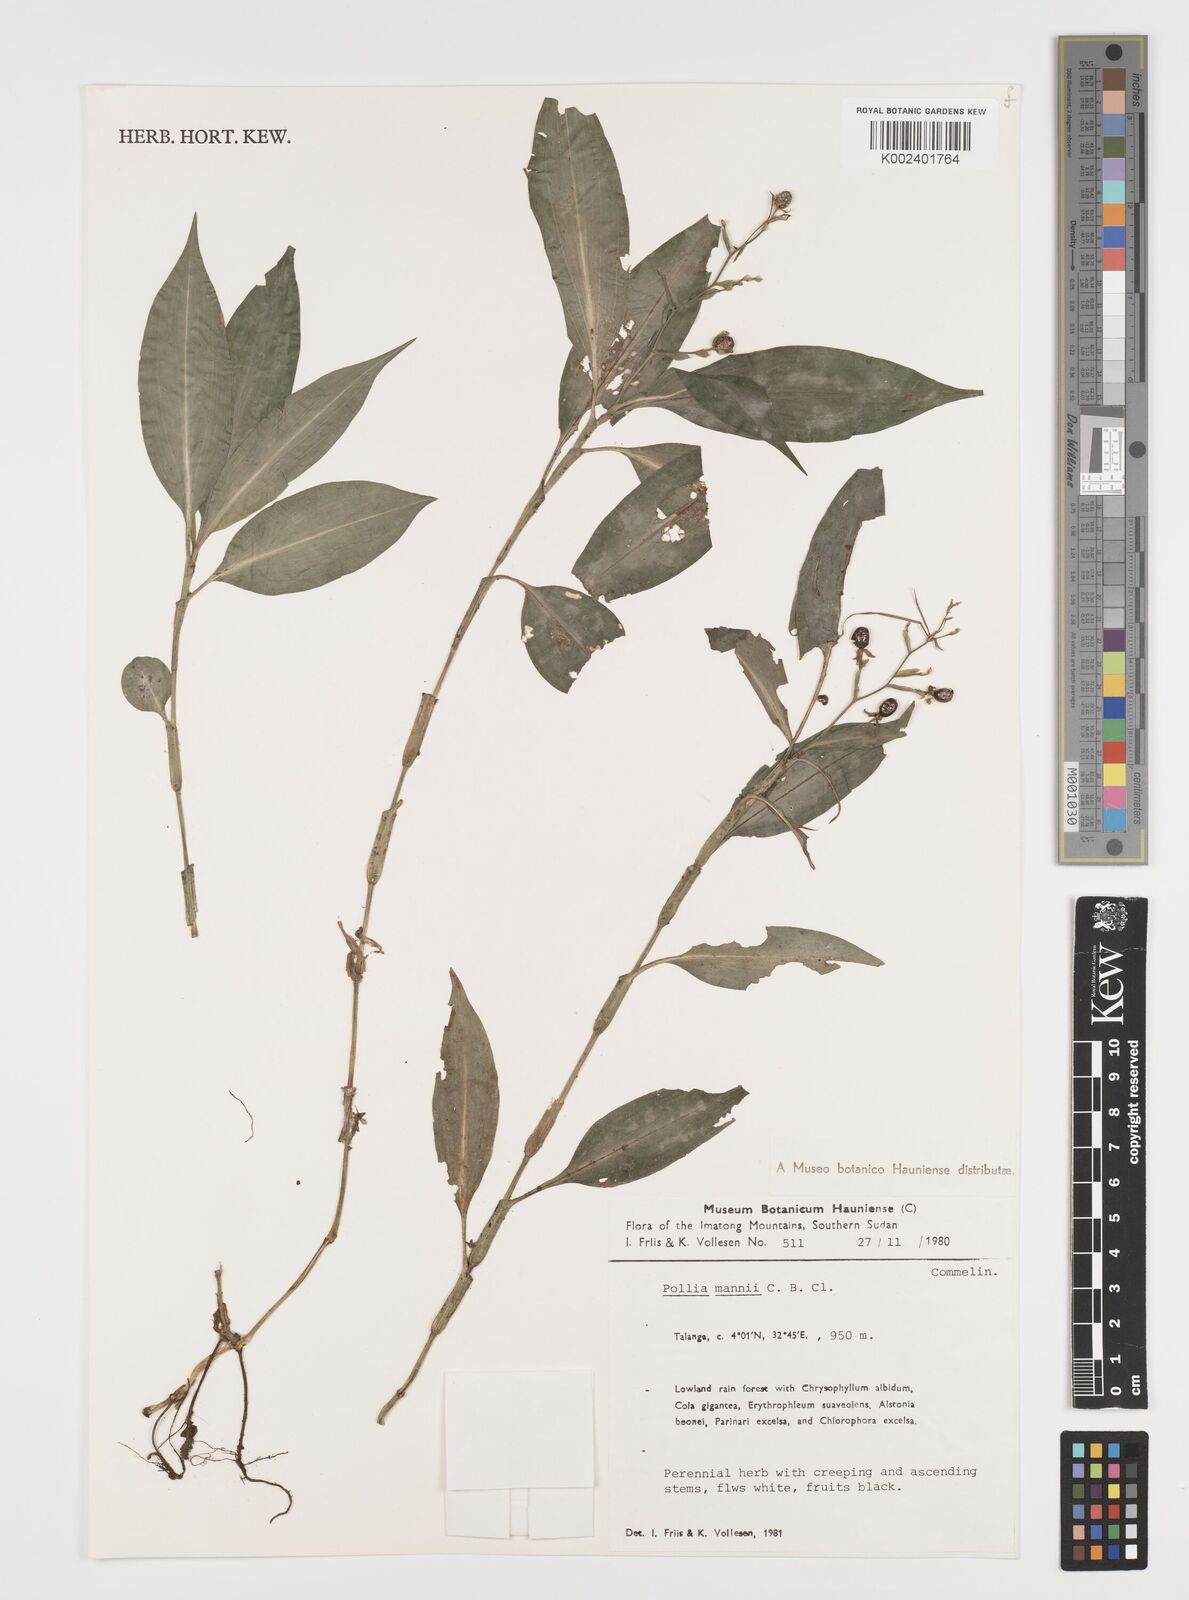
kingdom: Plantae
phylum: Tracheophyta
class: Liliopsida
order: Commelinales
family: Commelinaceae
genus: Pollia
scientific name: Pollia mannii
